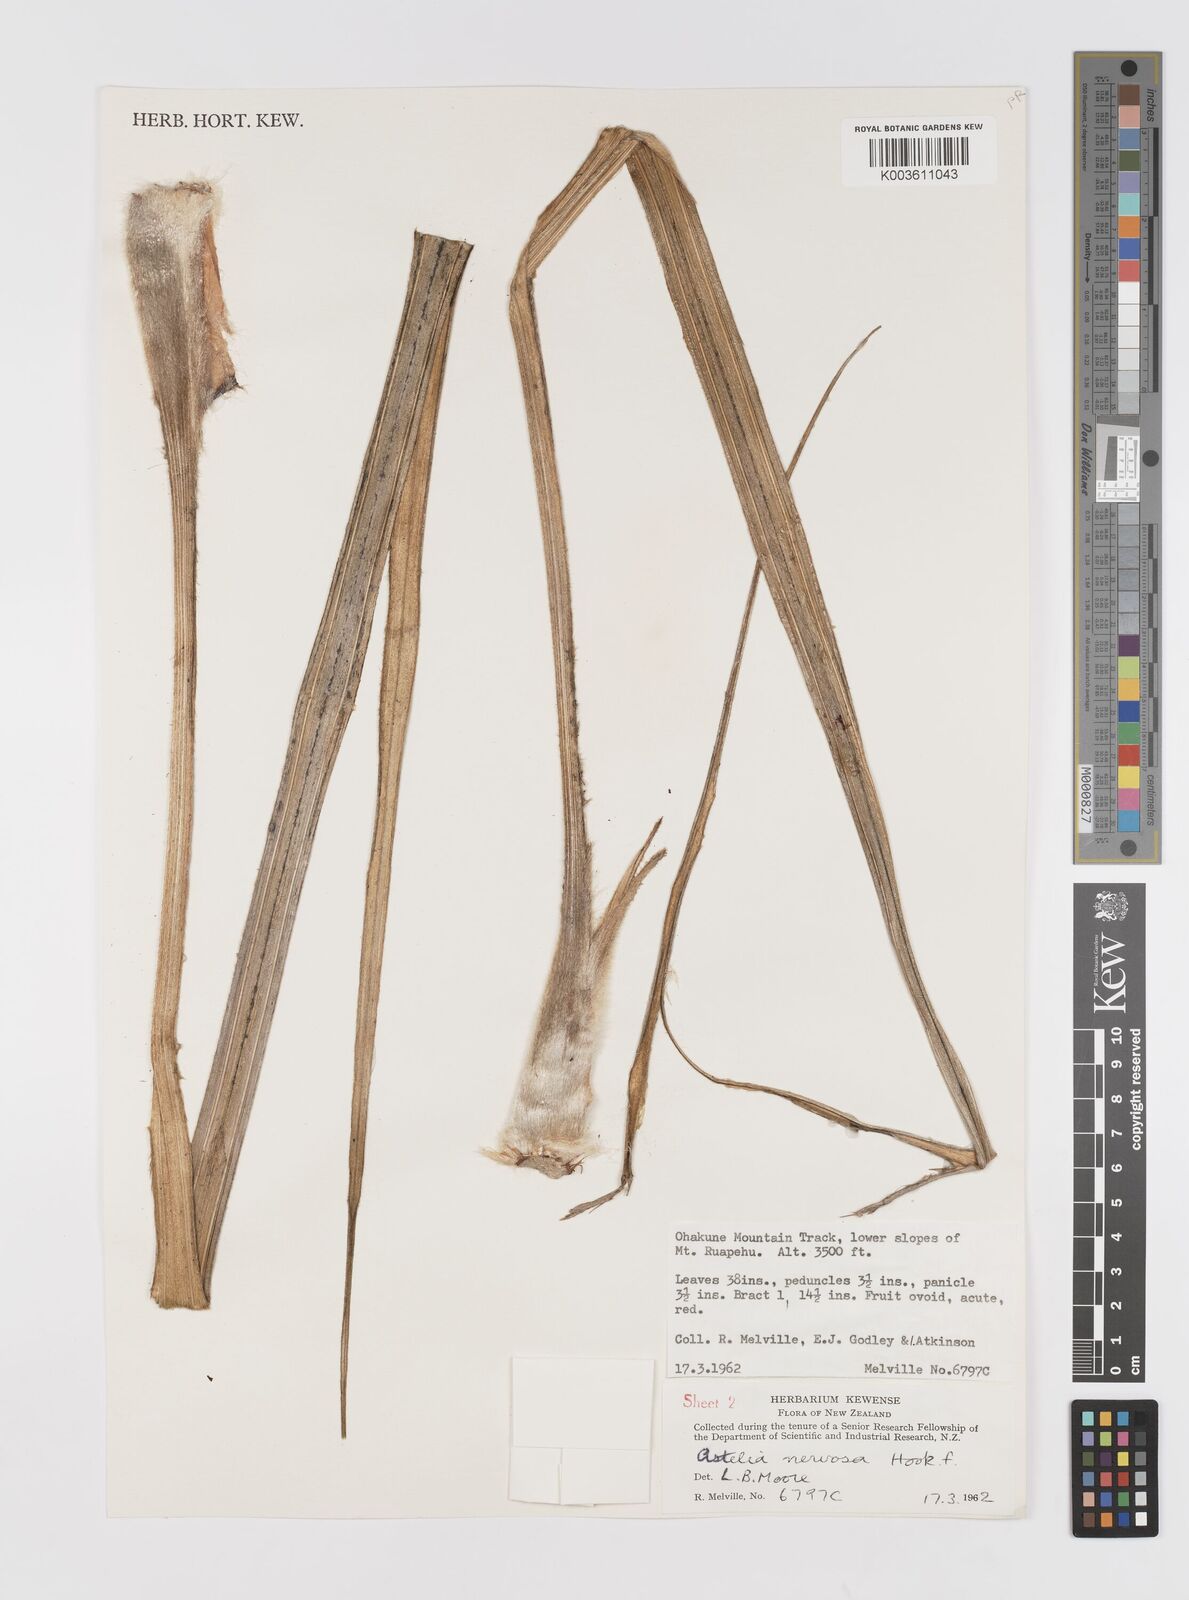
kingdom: Plantae
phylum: Tracheophyta
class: Liliopsida
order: Asparagales
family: Asteliaceae
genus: Astelia
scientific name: Astelia nervosa
